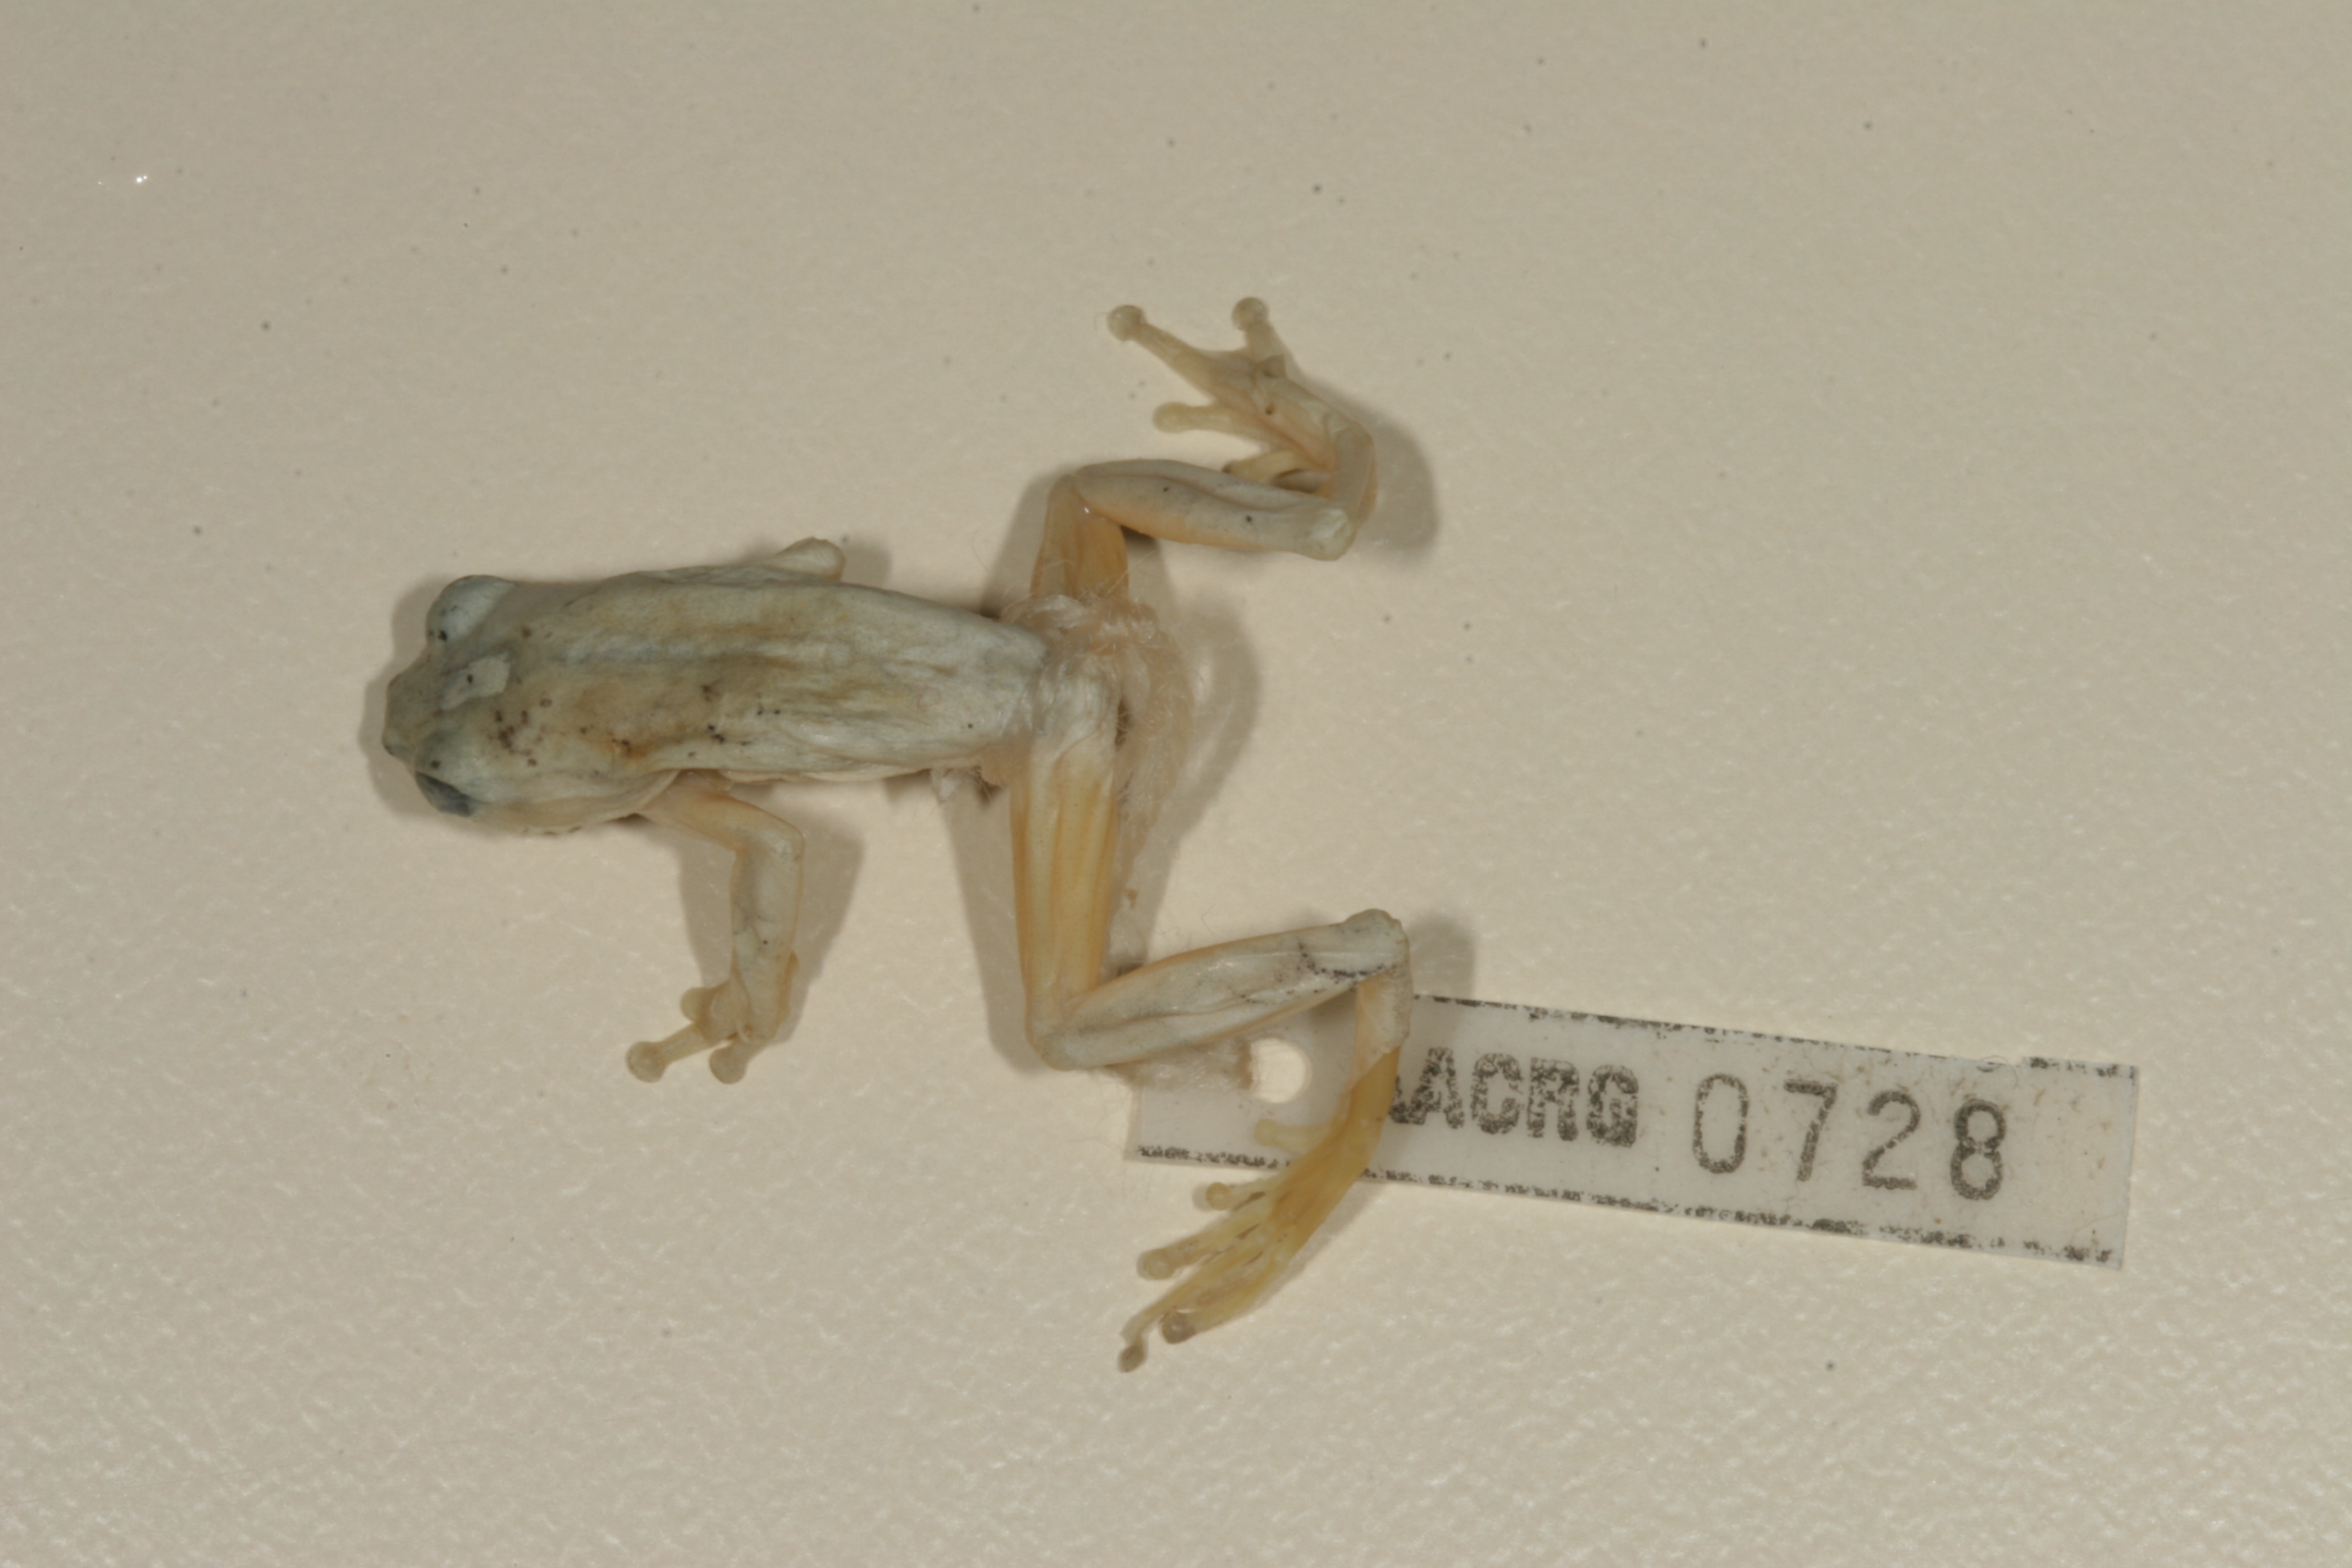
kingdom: Animalia
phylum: Chordata
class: Amphibia
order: Anura
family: Hyperoliidae
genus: Hyperolius
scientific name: Hyperolius marmoratus
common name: Painted reed frog
